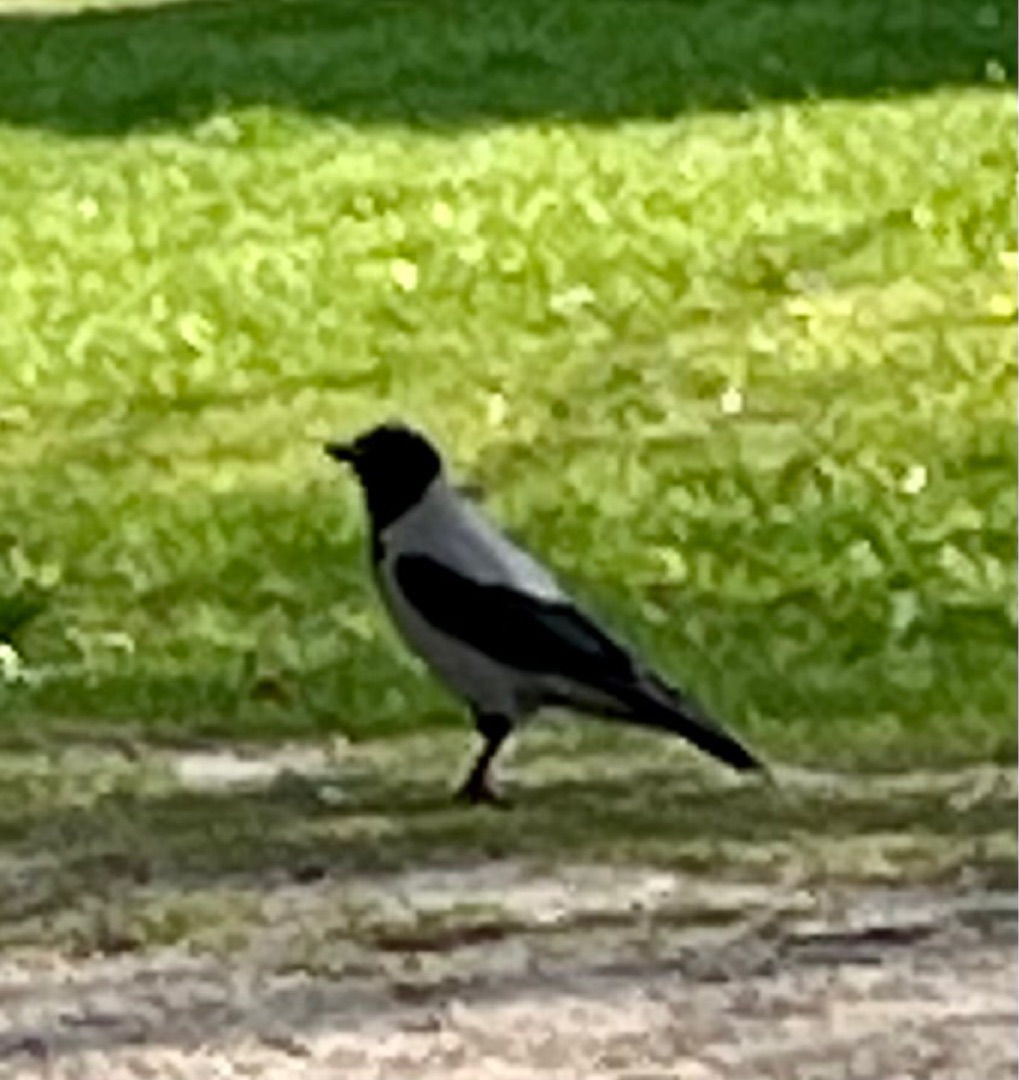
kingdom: Animalia
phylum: Chordata
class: Aves
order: Passeriformes
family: Corvidae
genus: Corvus
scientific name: Corvus cornix
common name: Gråkrage
